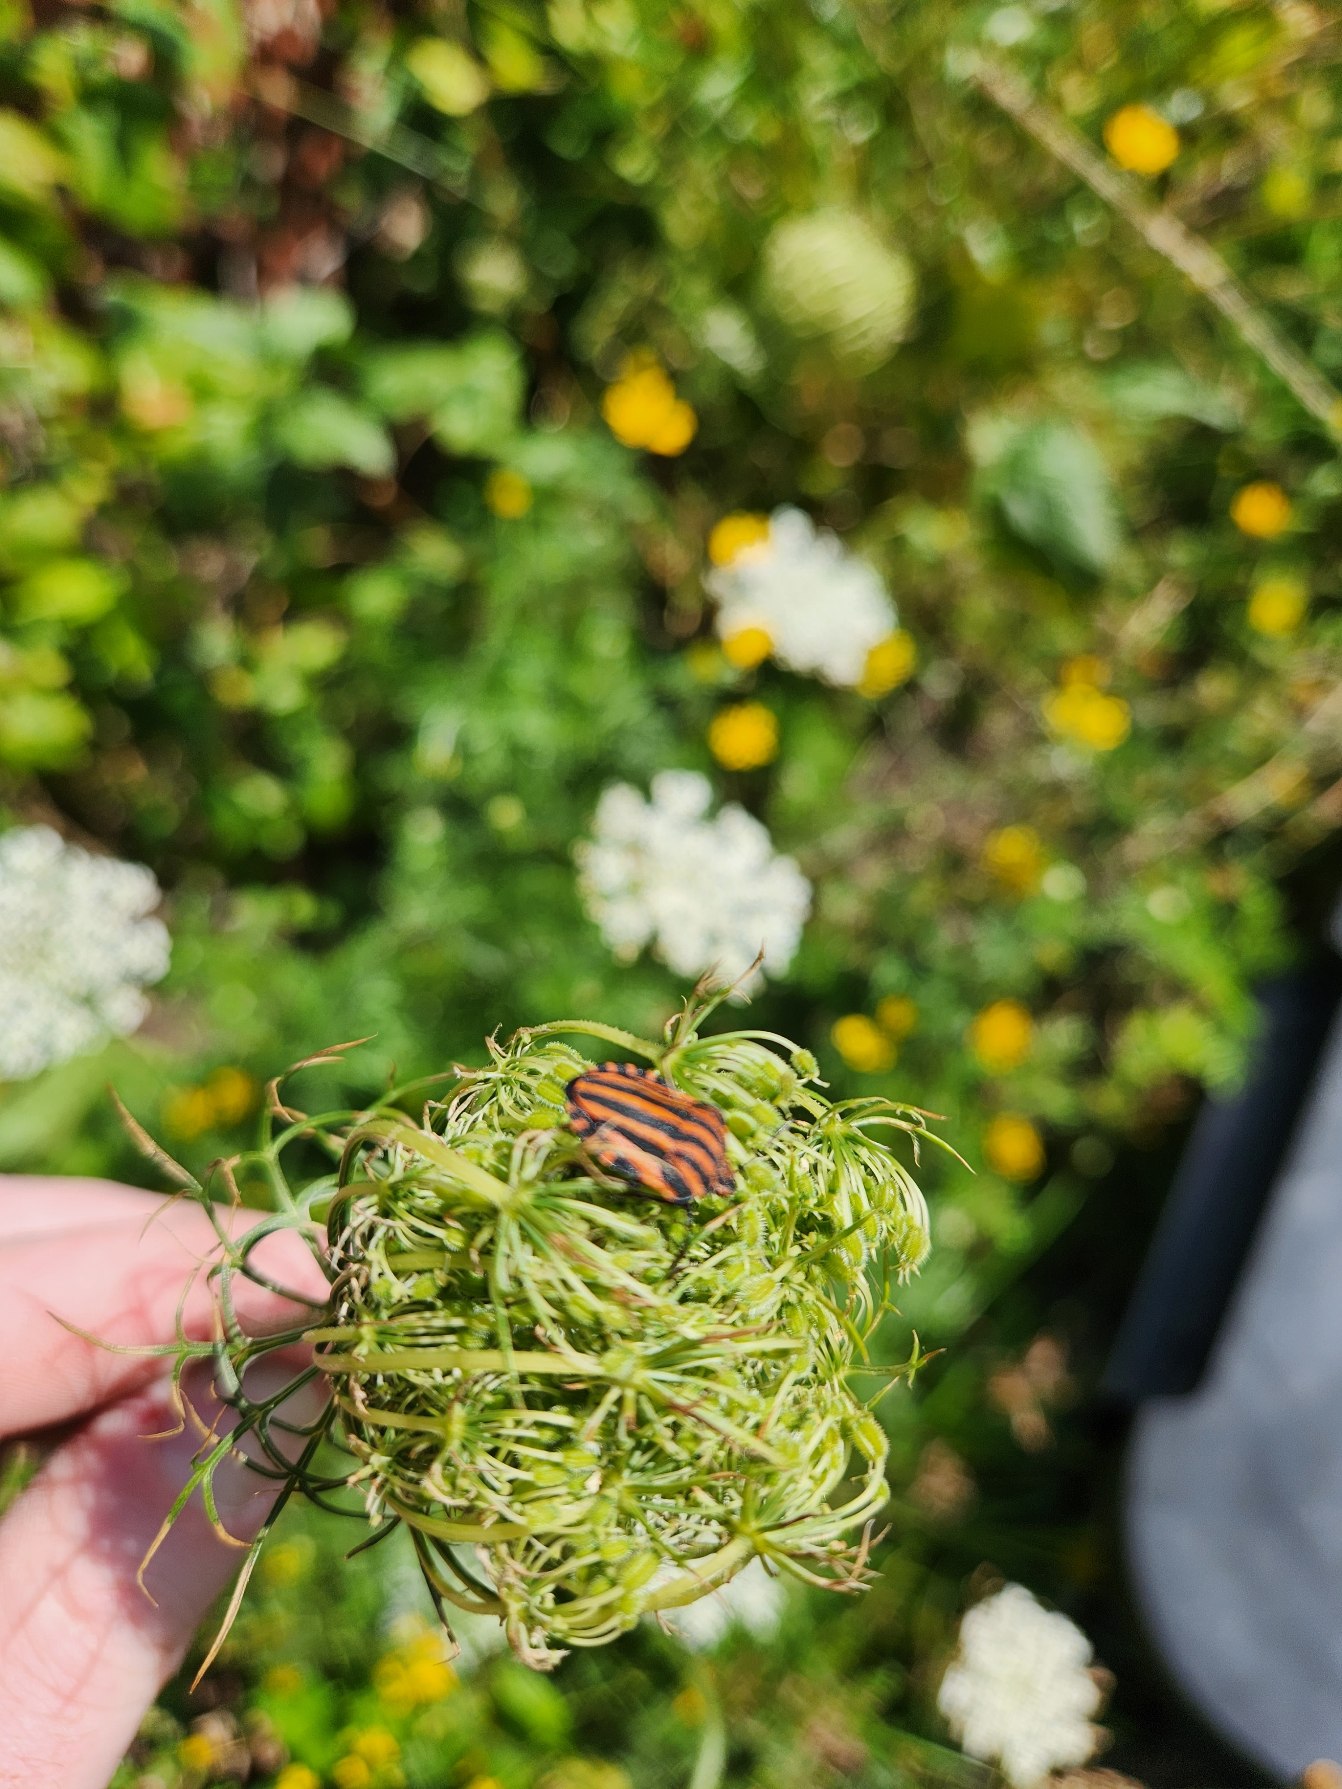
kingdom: Animalia
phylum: Arthropoda
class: Insecta
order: Hemiptera
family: Pentatomidae
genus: Graphosoma
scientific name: Graphosoma italicum
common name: Stribetæge
